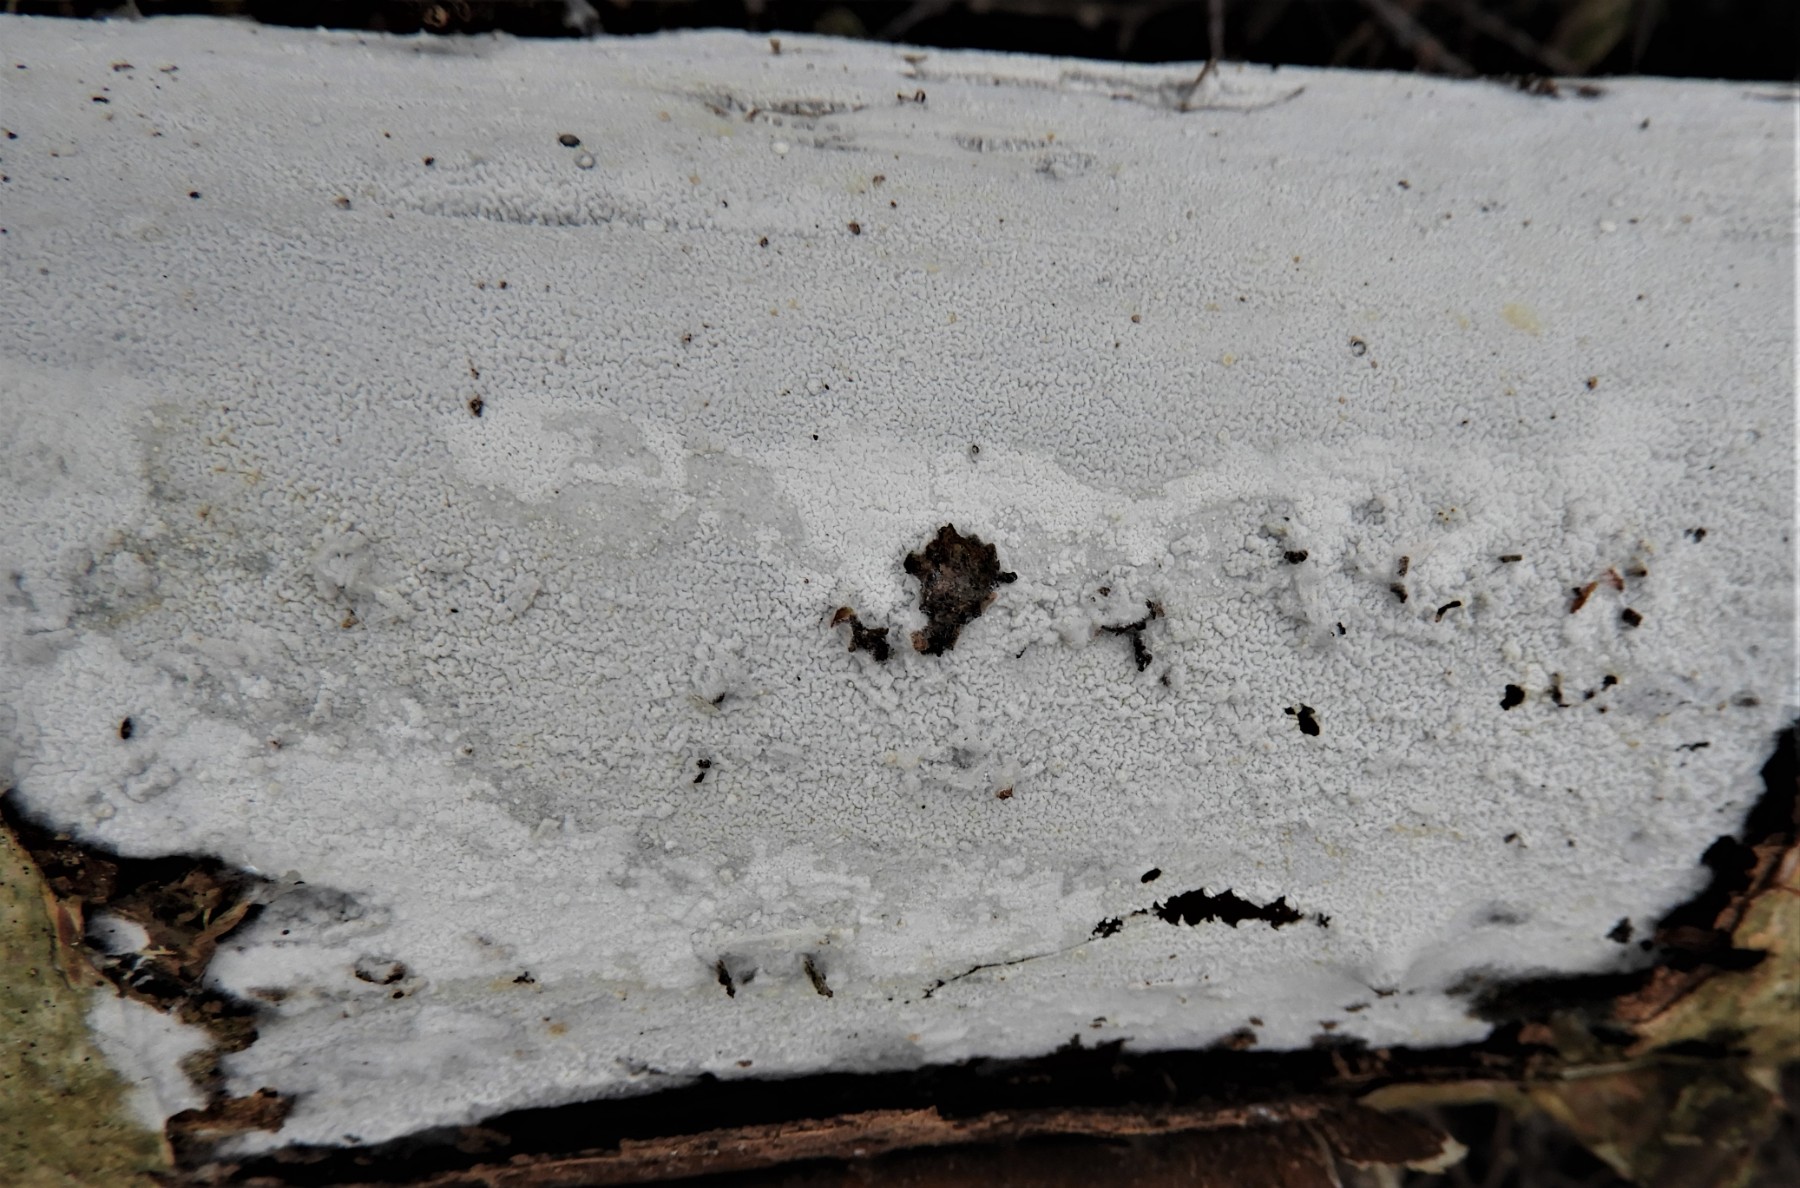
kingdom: Fungi
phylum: Basidiomycota
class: Agaricomycetes
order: Corticiales
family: Corticiaceae
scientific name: Corticiaceae
